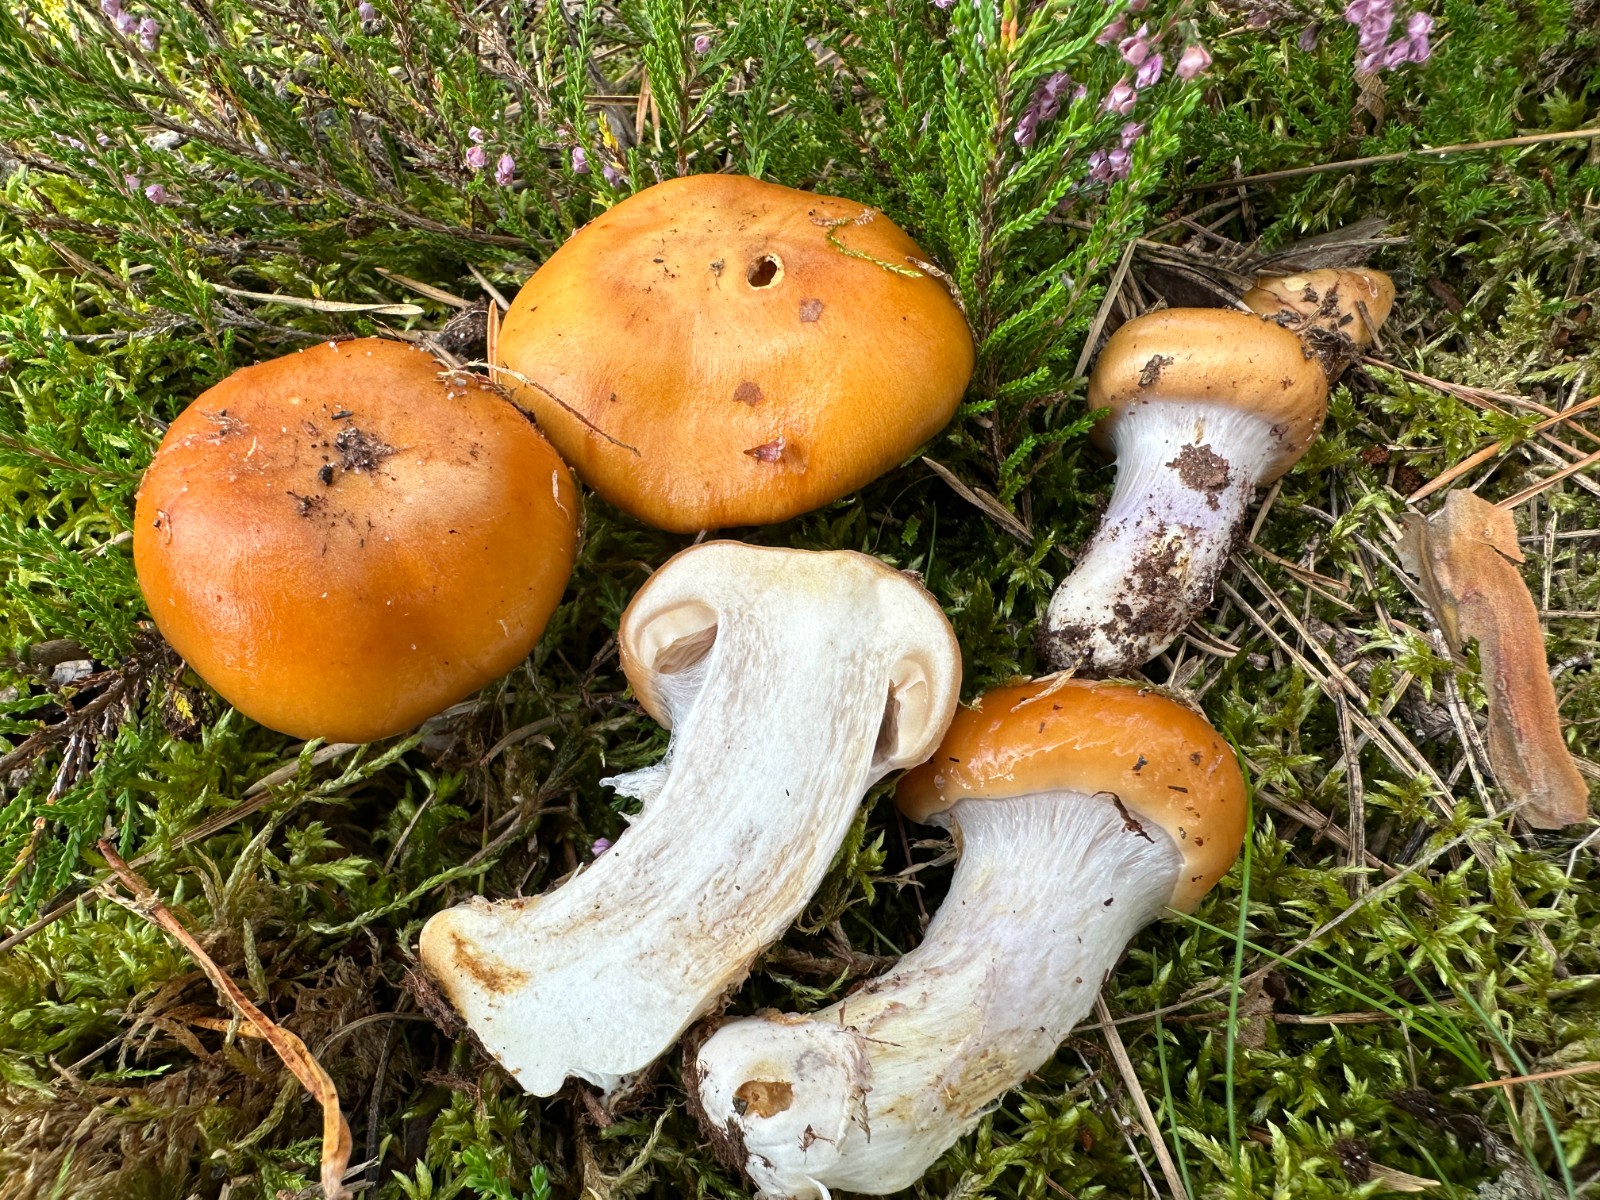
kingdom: Fungi
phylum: Basidiomycota
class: Agaricomycetes
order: Agaricales
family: Cortinariaceae
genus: Cortinarius
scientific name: Cortinarius mucosus
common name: kastaniebrun slørhat
